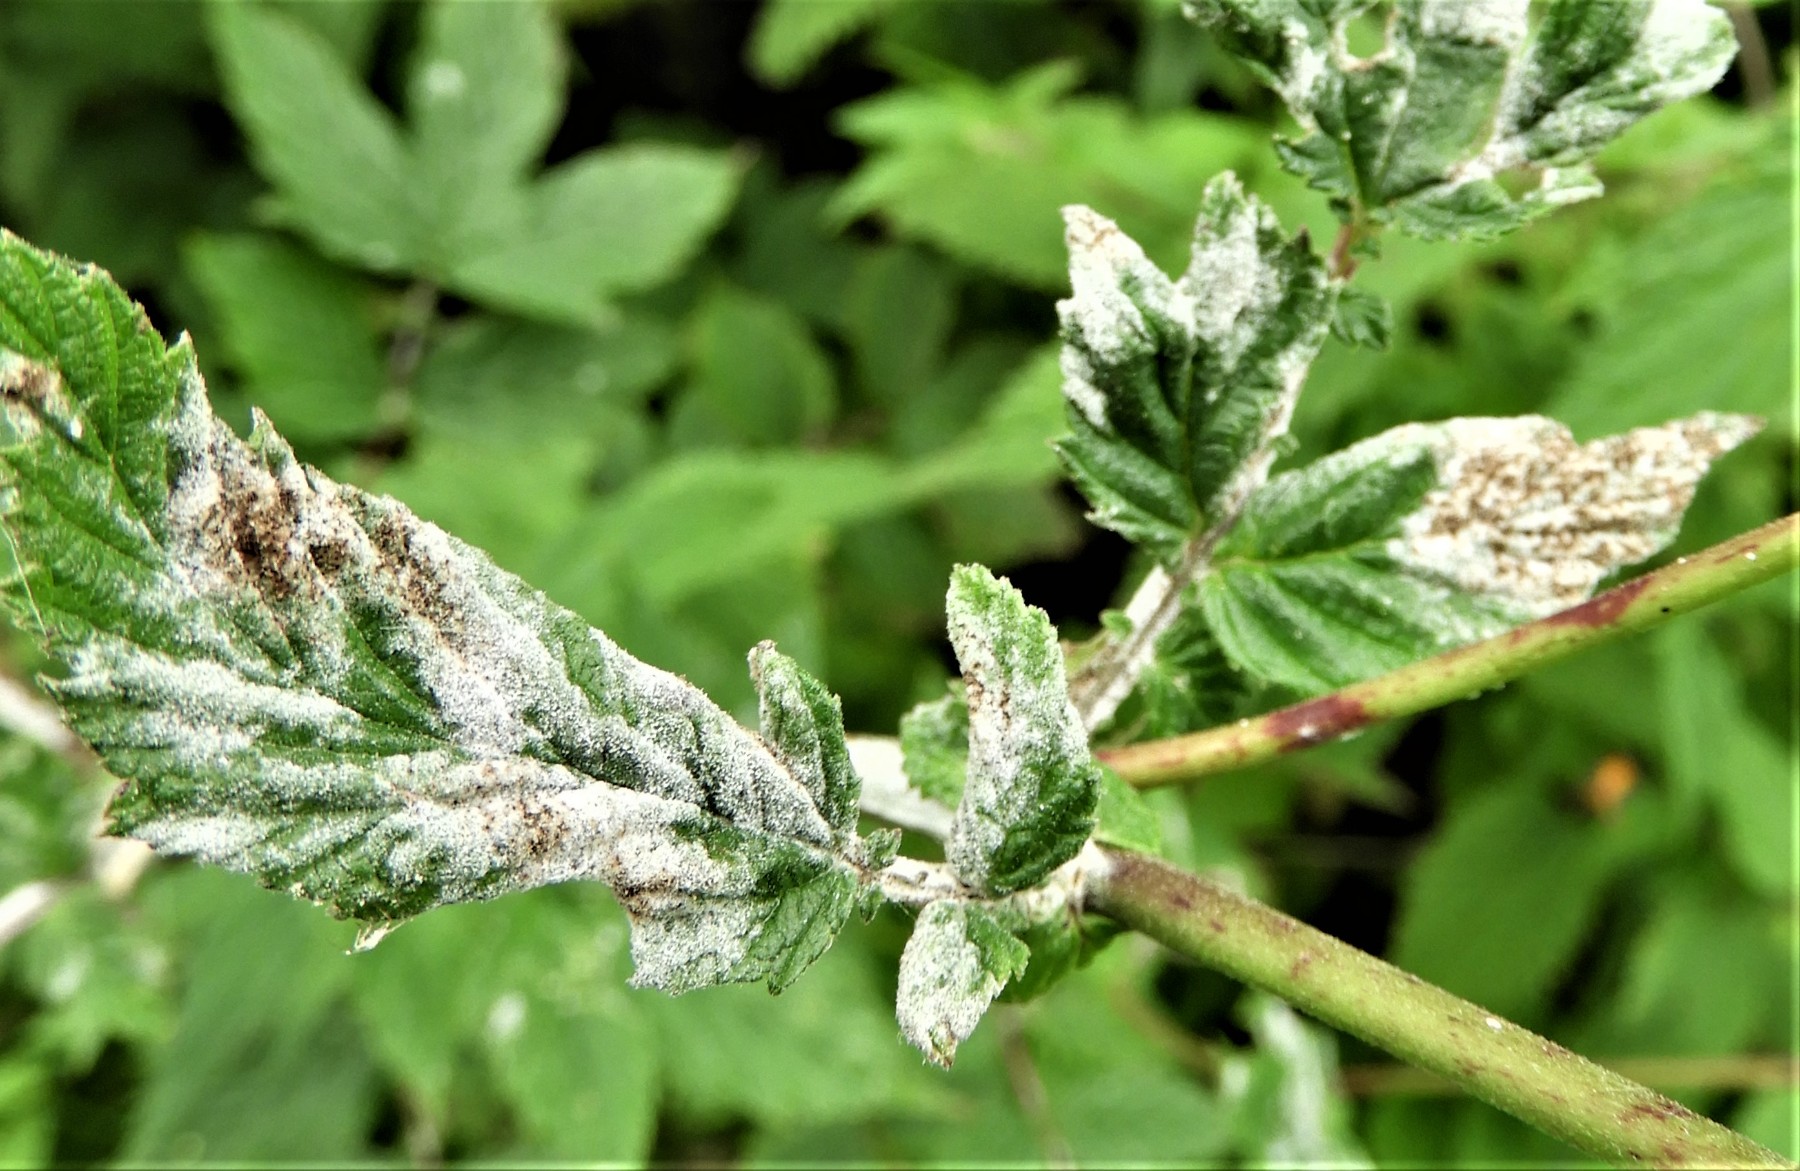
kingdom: Fungi
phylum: Ascomycota
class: Leotiomycetes
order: Helotiales
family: Erysiphaceae
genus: Podosphaera
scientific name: Podosphaera filipendulae
